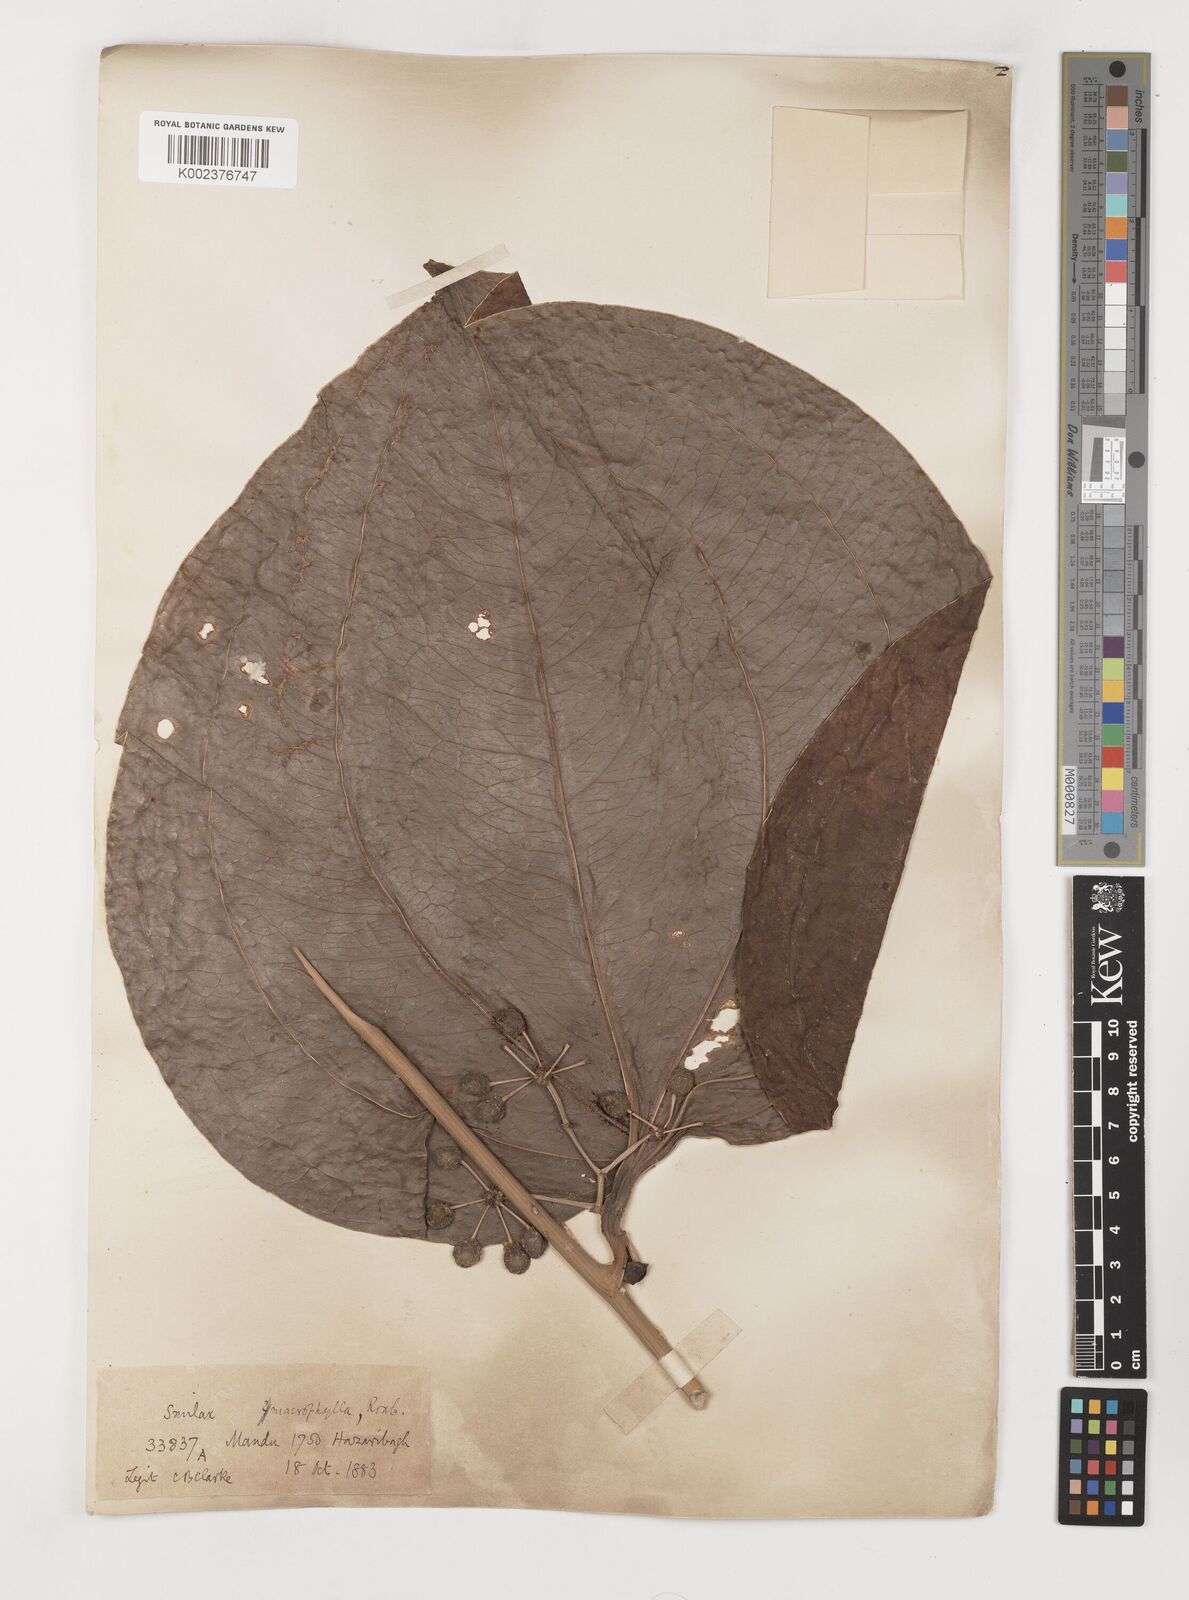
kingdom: Plantae
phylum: Tracheophyta
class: Liliopsida
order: Liliales
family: Smilacaceae
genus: Smilax
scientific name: Smilax ovalifolia
